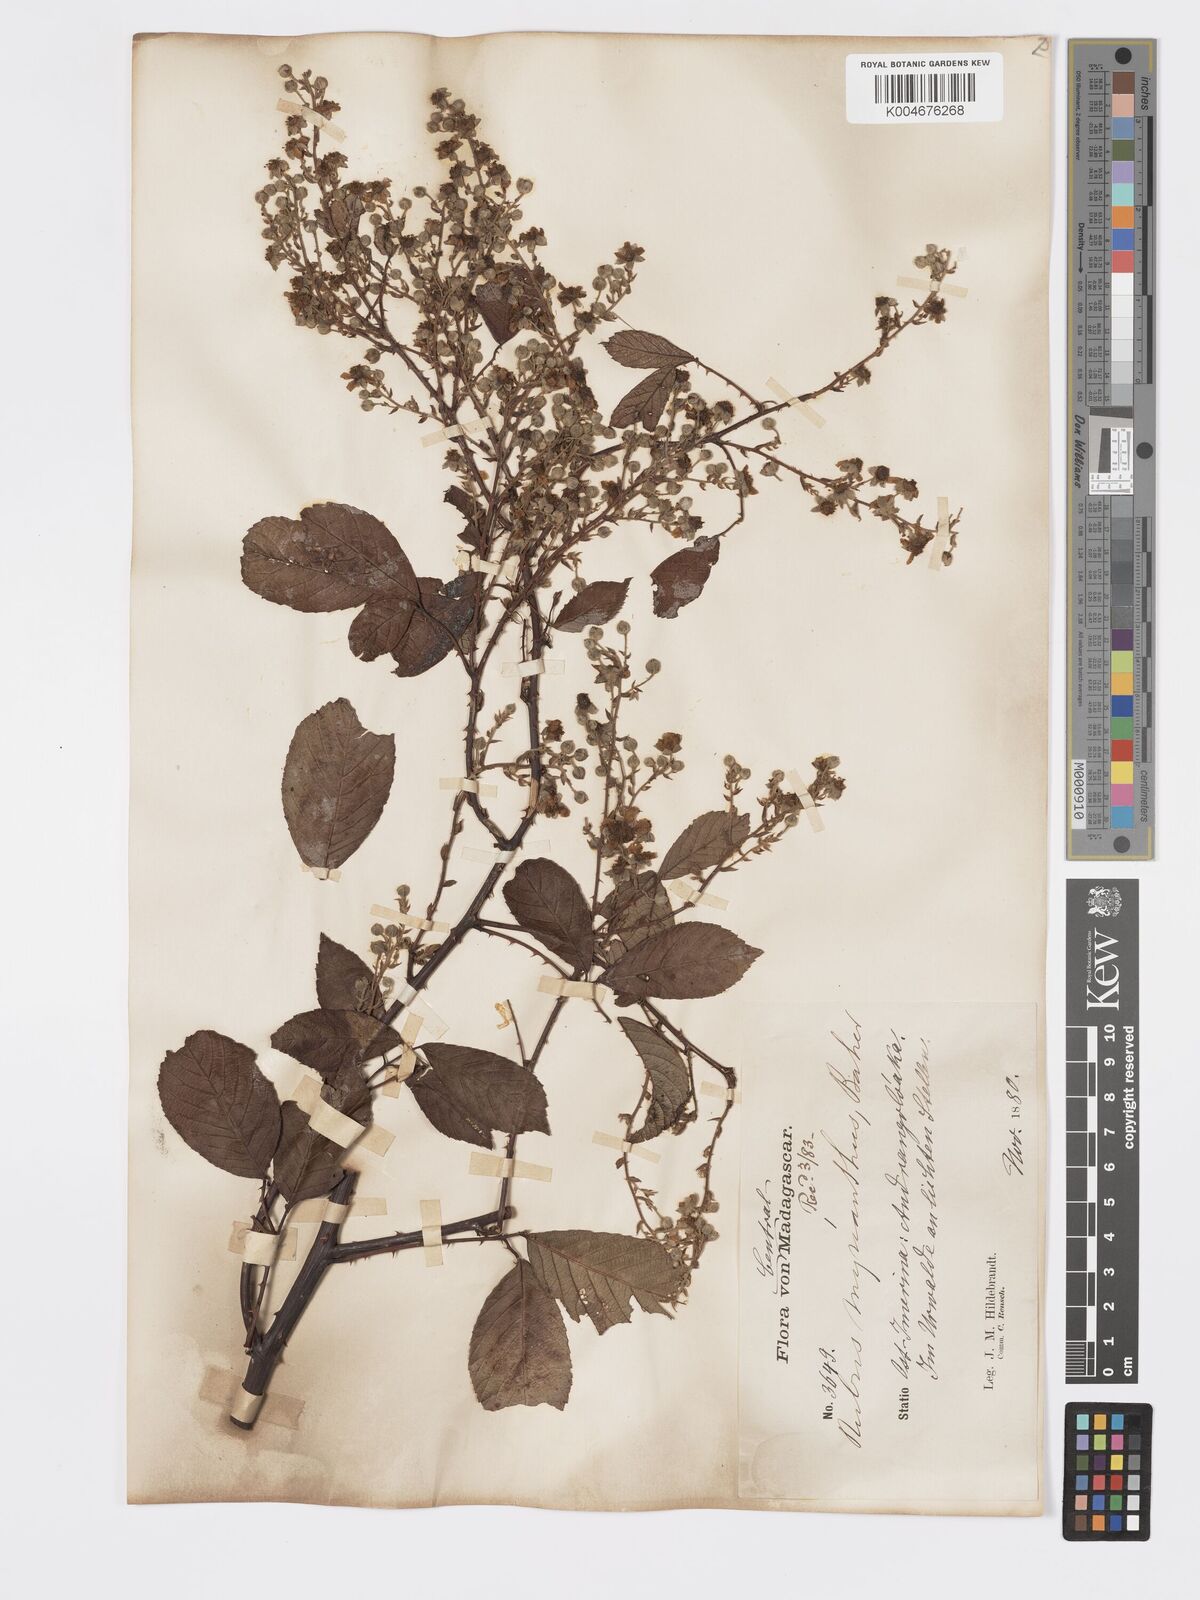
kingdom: Plantae
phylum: Tracheophyta
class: Magnoliopsida
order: Rosales
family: Rosaceae
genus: Rubus
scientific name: Rubus
